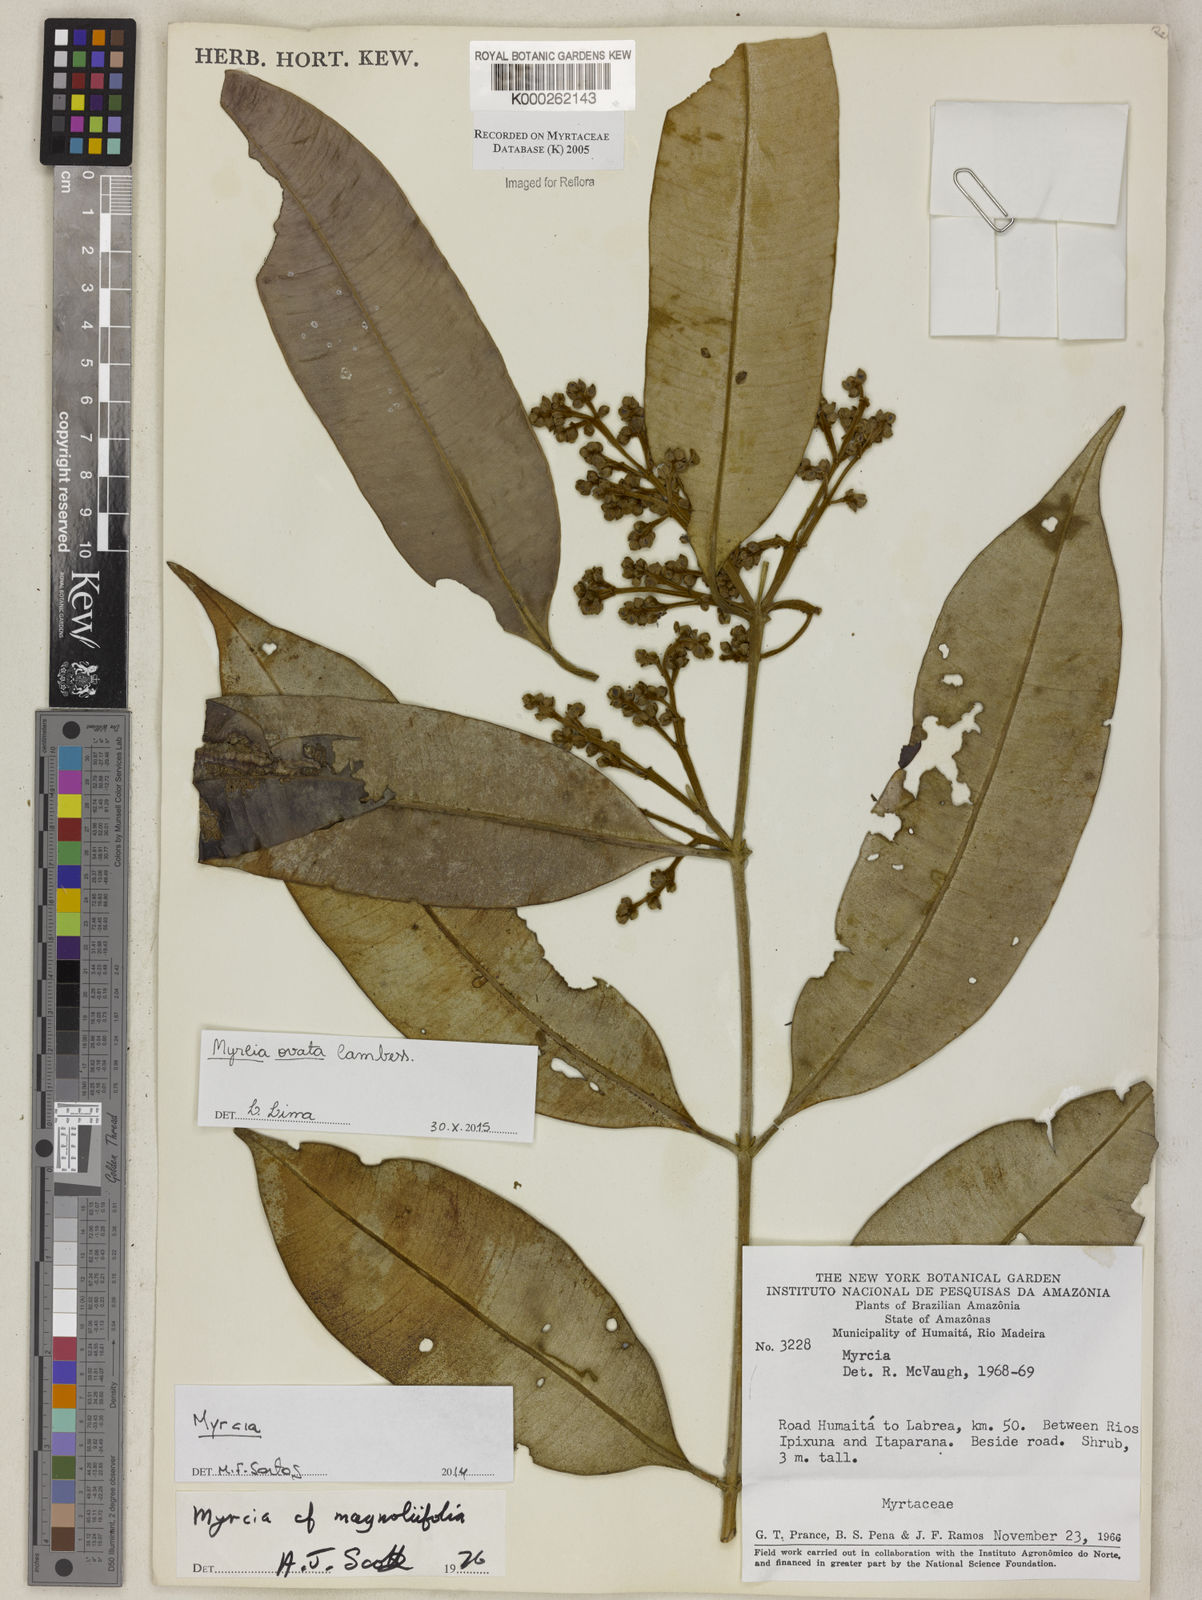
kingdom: Plantae
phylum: Tracheophyta
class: Magnoliopsida
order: Myrtales
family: Myrtaceae
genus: Myrcia
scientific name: Myrcia splendens
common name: Surinam cherry
